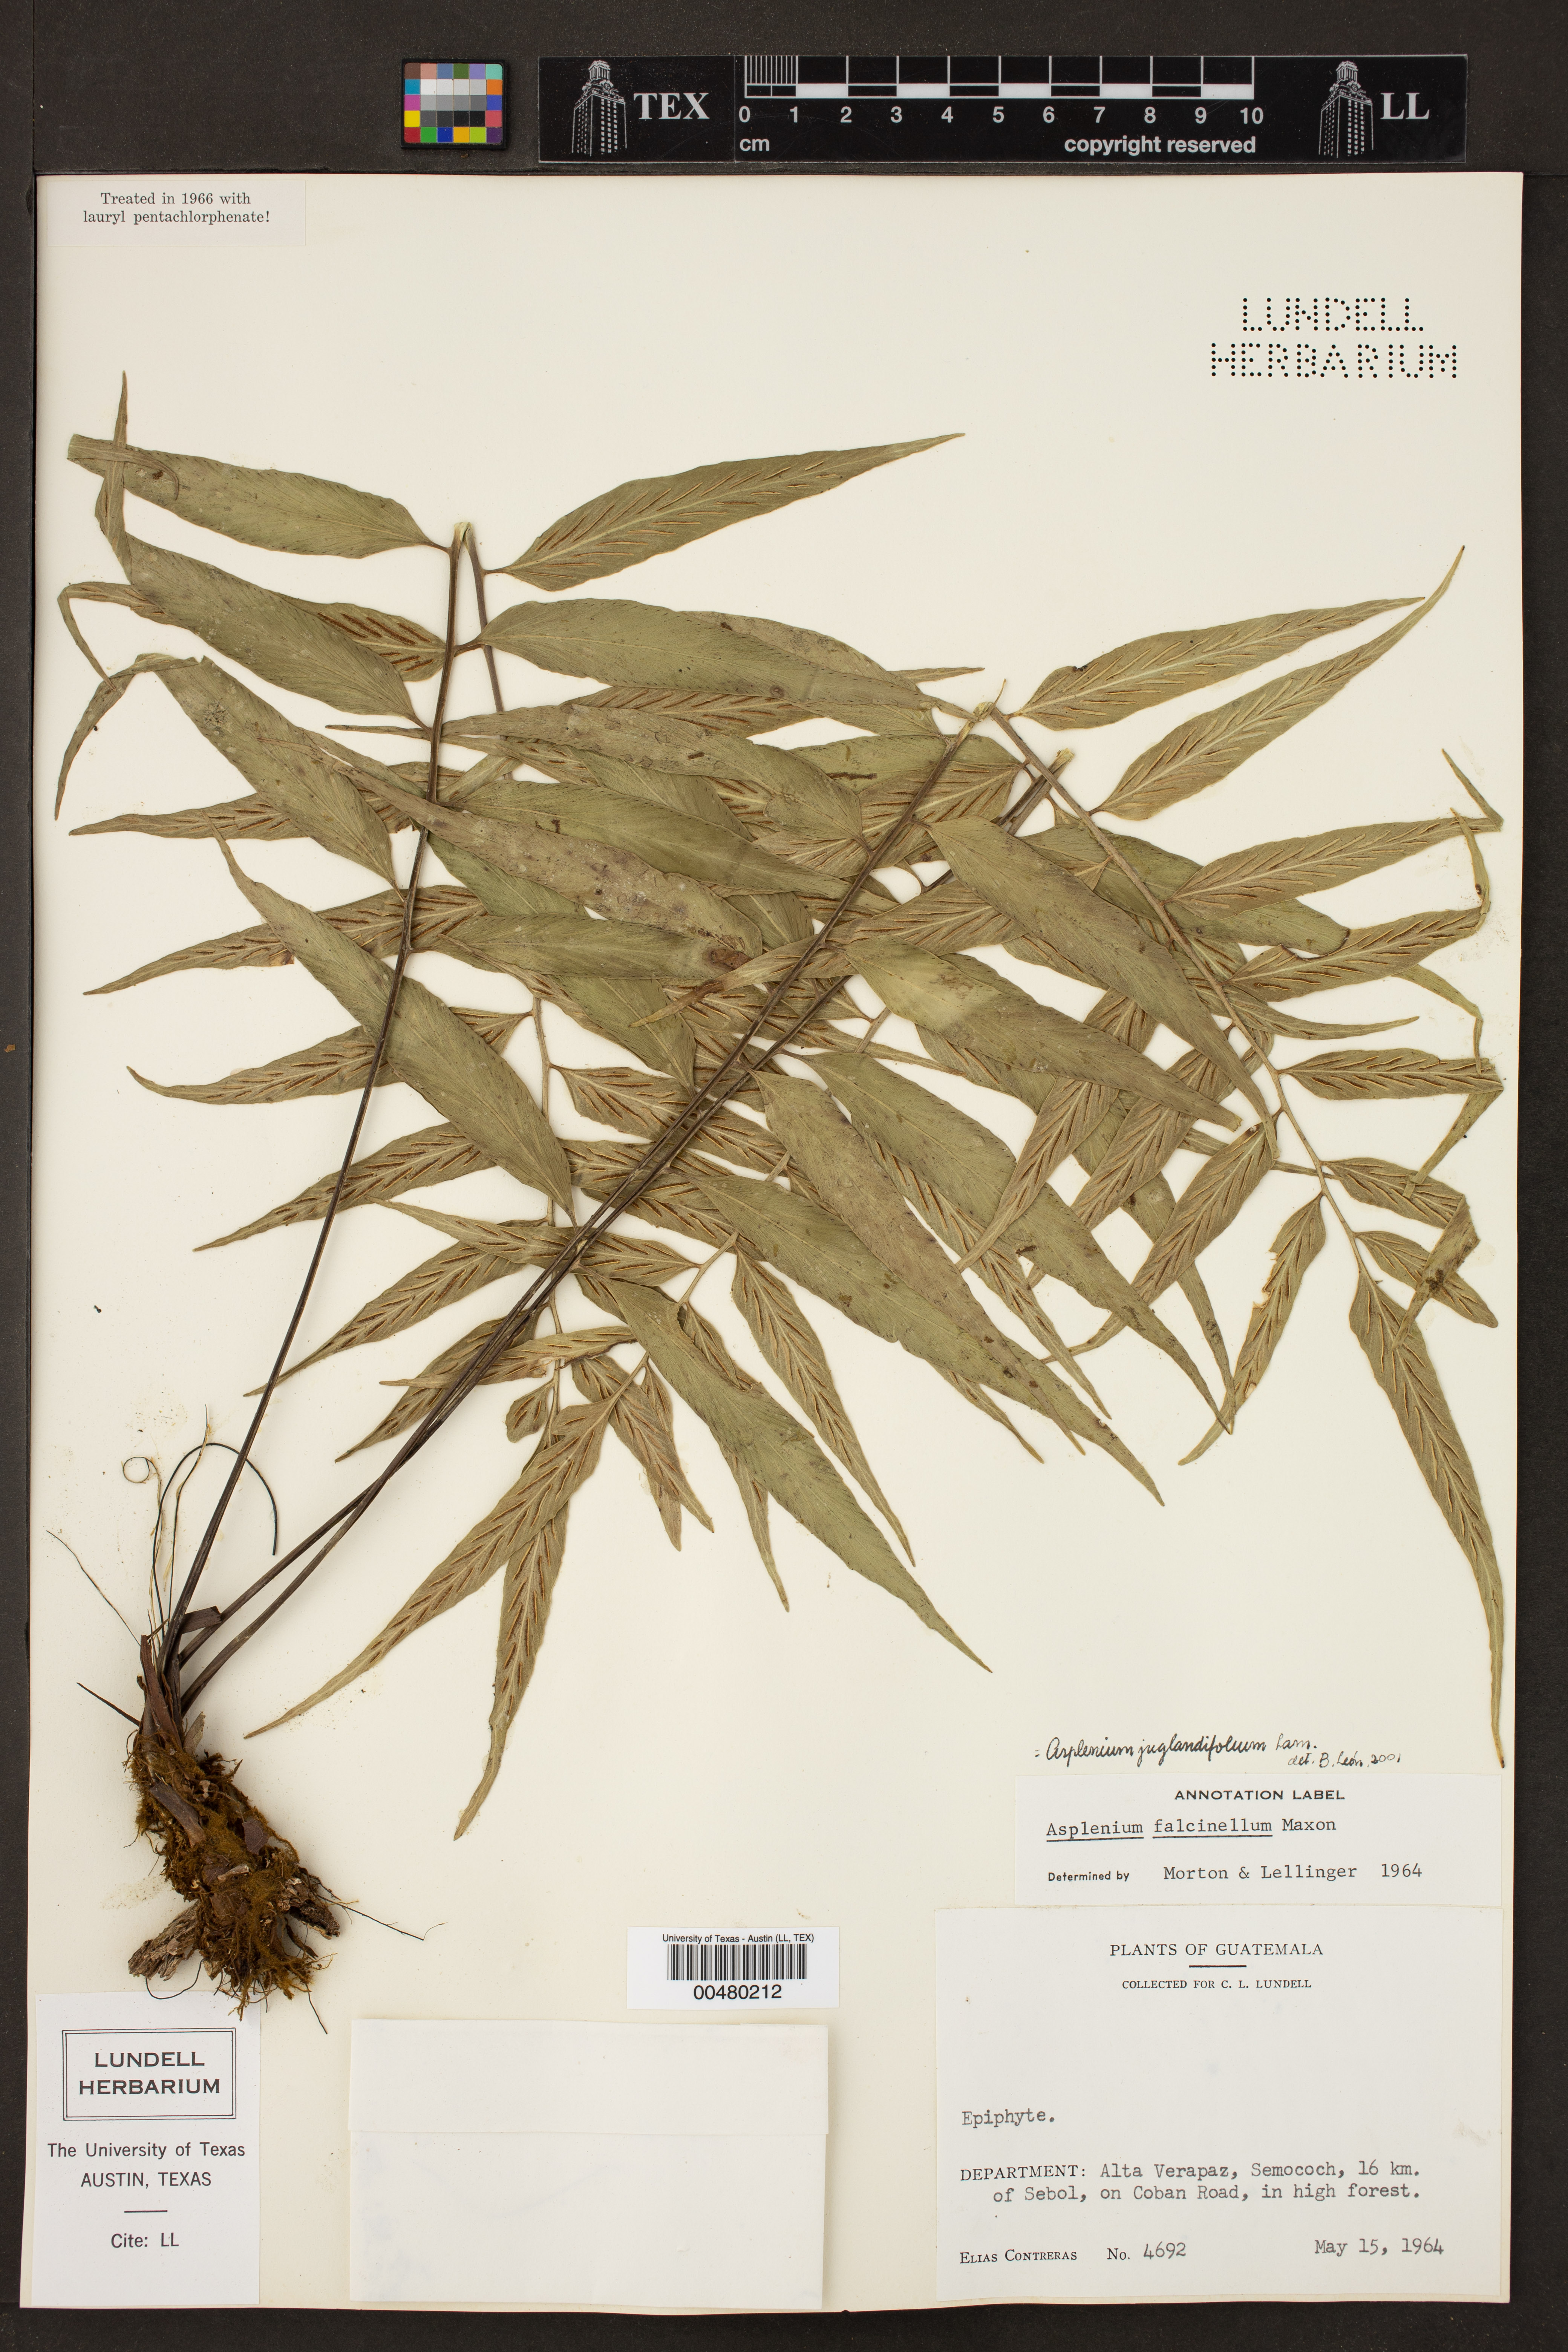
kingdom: Plantae
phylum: Tracheophyta
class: Polypodiopsida
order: Polypodiales
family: Aspleniaceae
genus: Asplenium
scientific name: Asplenium juglandifolium
